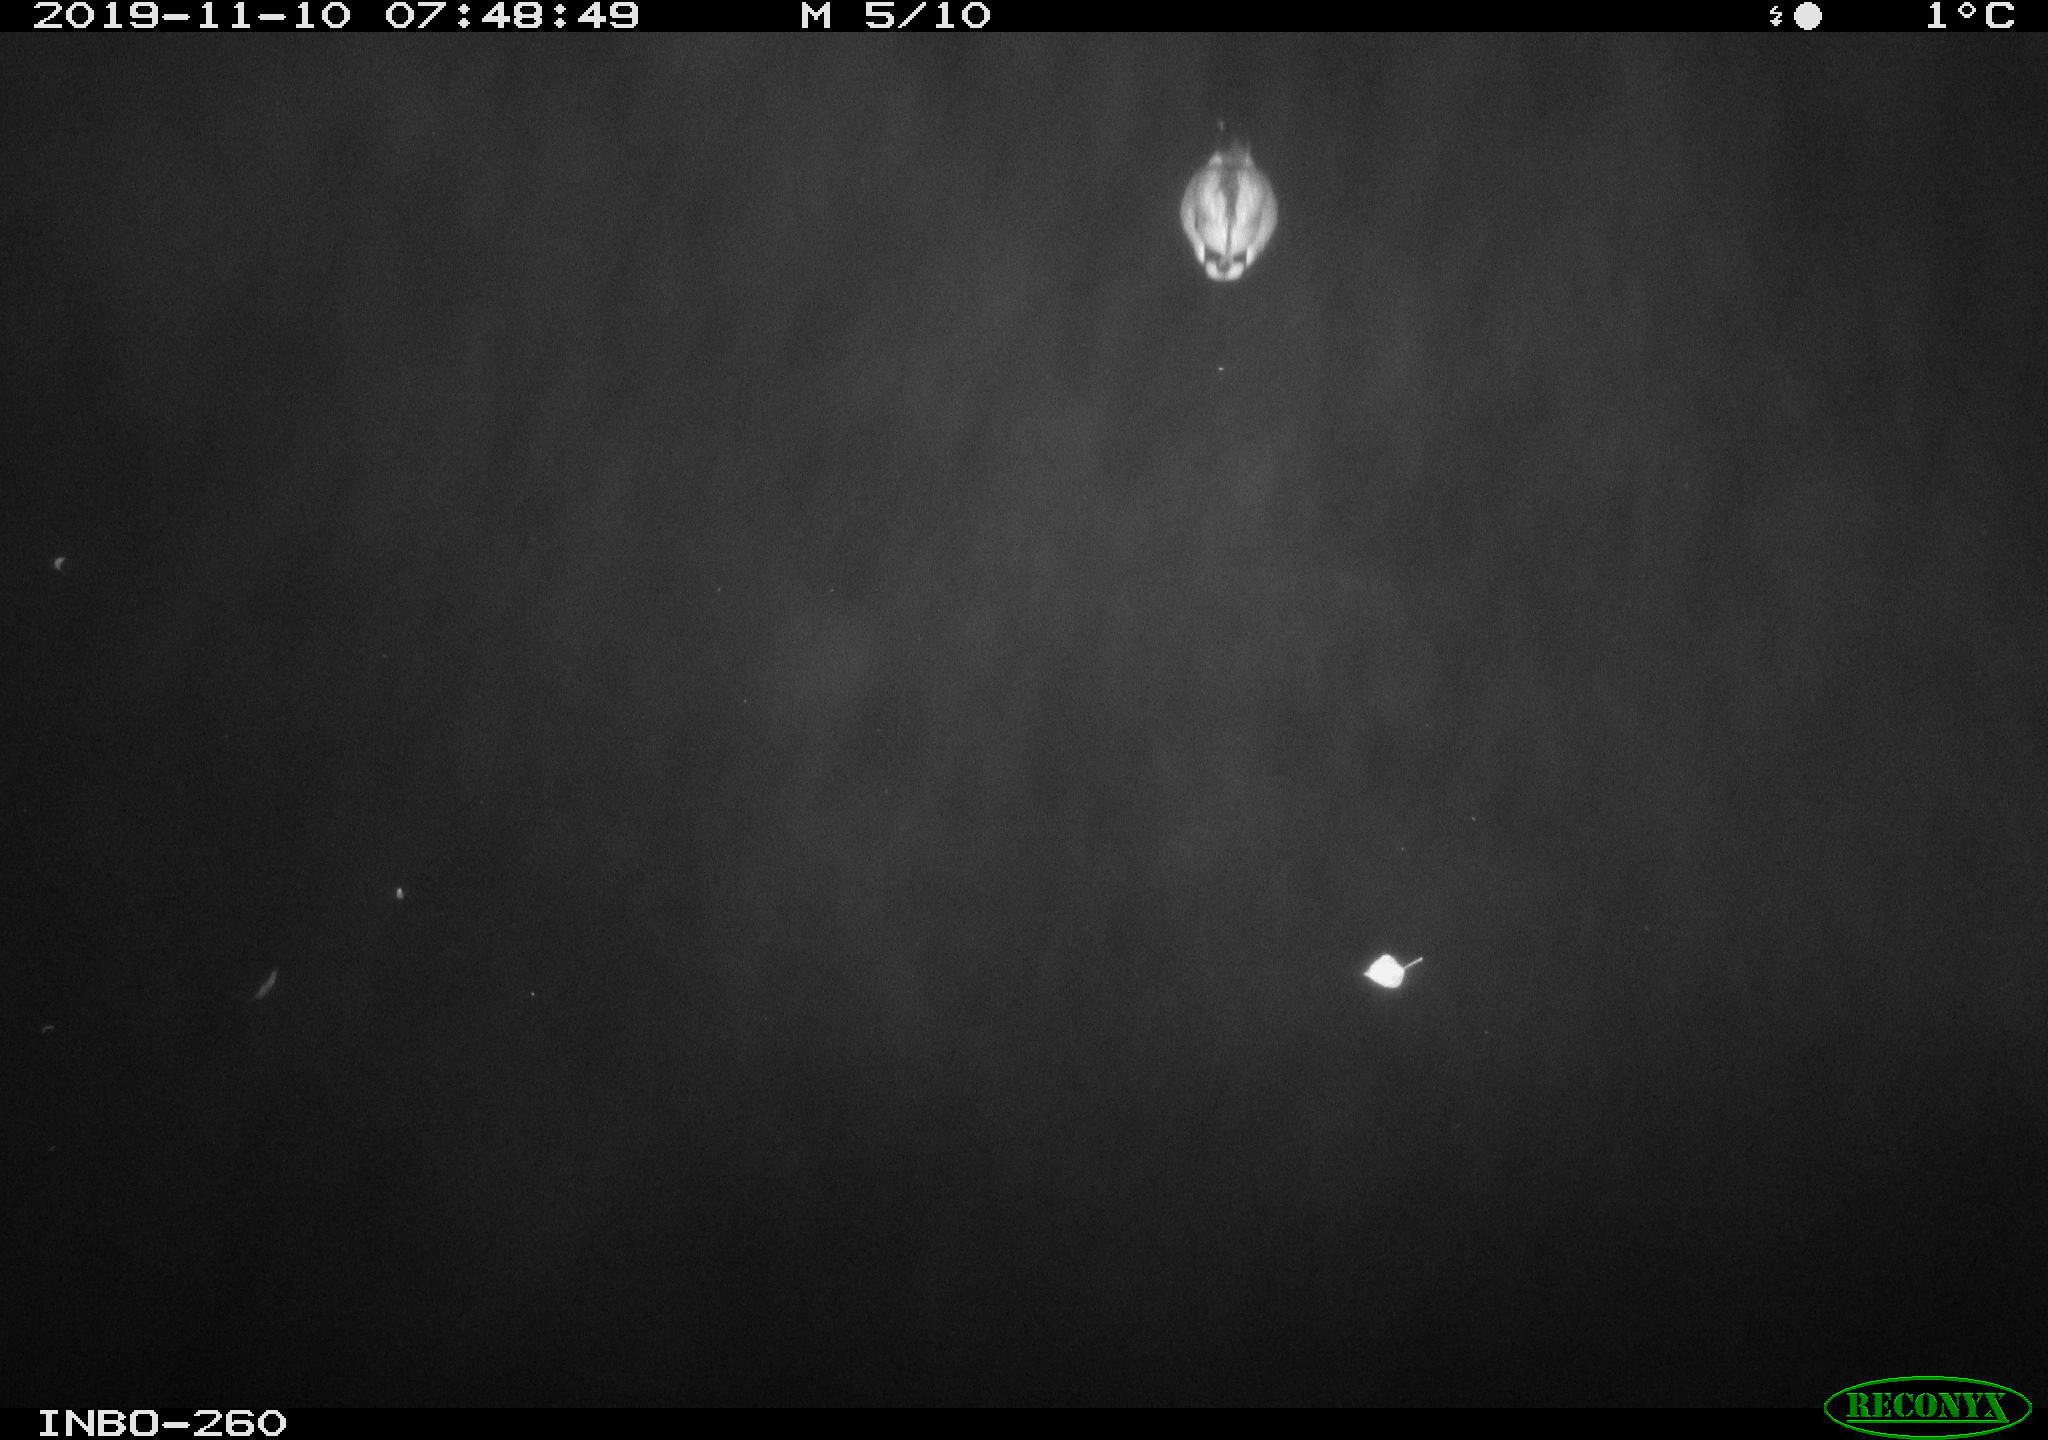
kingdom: Animalia
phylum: Chordata
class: Aves
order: Anseriformes
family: Anatidae
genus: Anas
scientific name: Anas platyrhynchos
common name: Mallard
